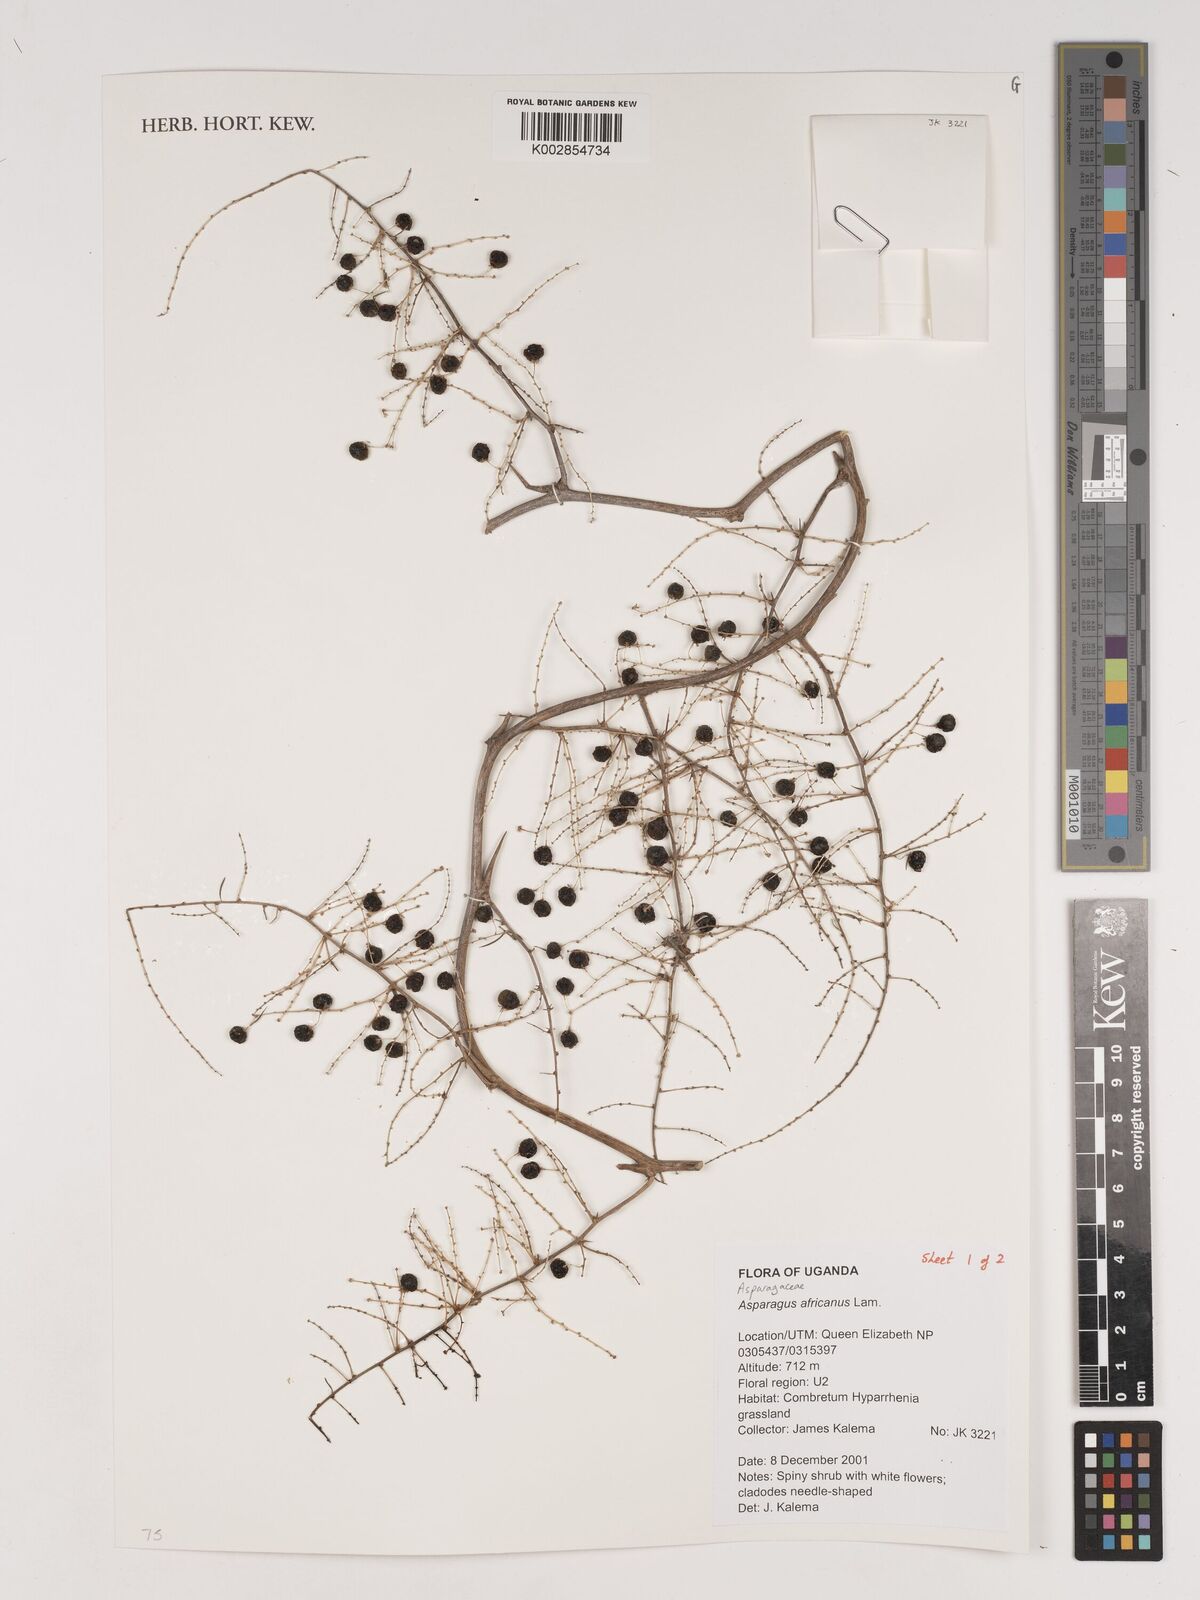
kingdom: Plantae
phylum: Tracheophyta
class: Liliopsida
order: Asparagales
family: Asparagaceae
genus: Asparagus
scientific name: Asparagus africanus
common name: Asparagus-fern
